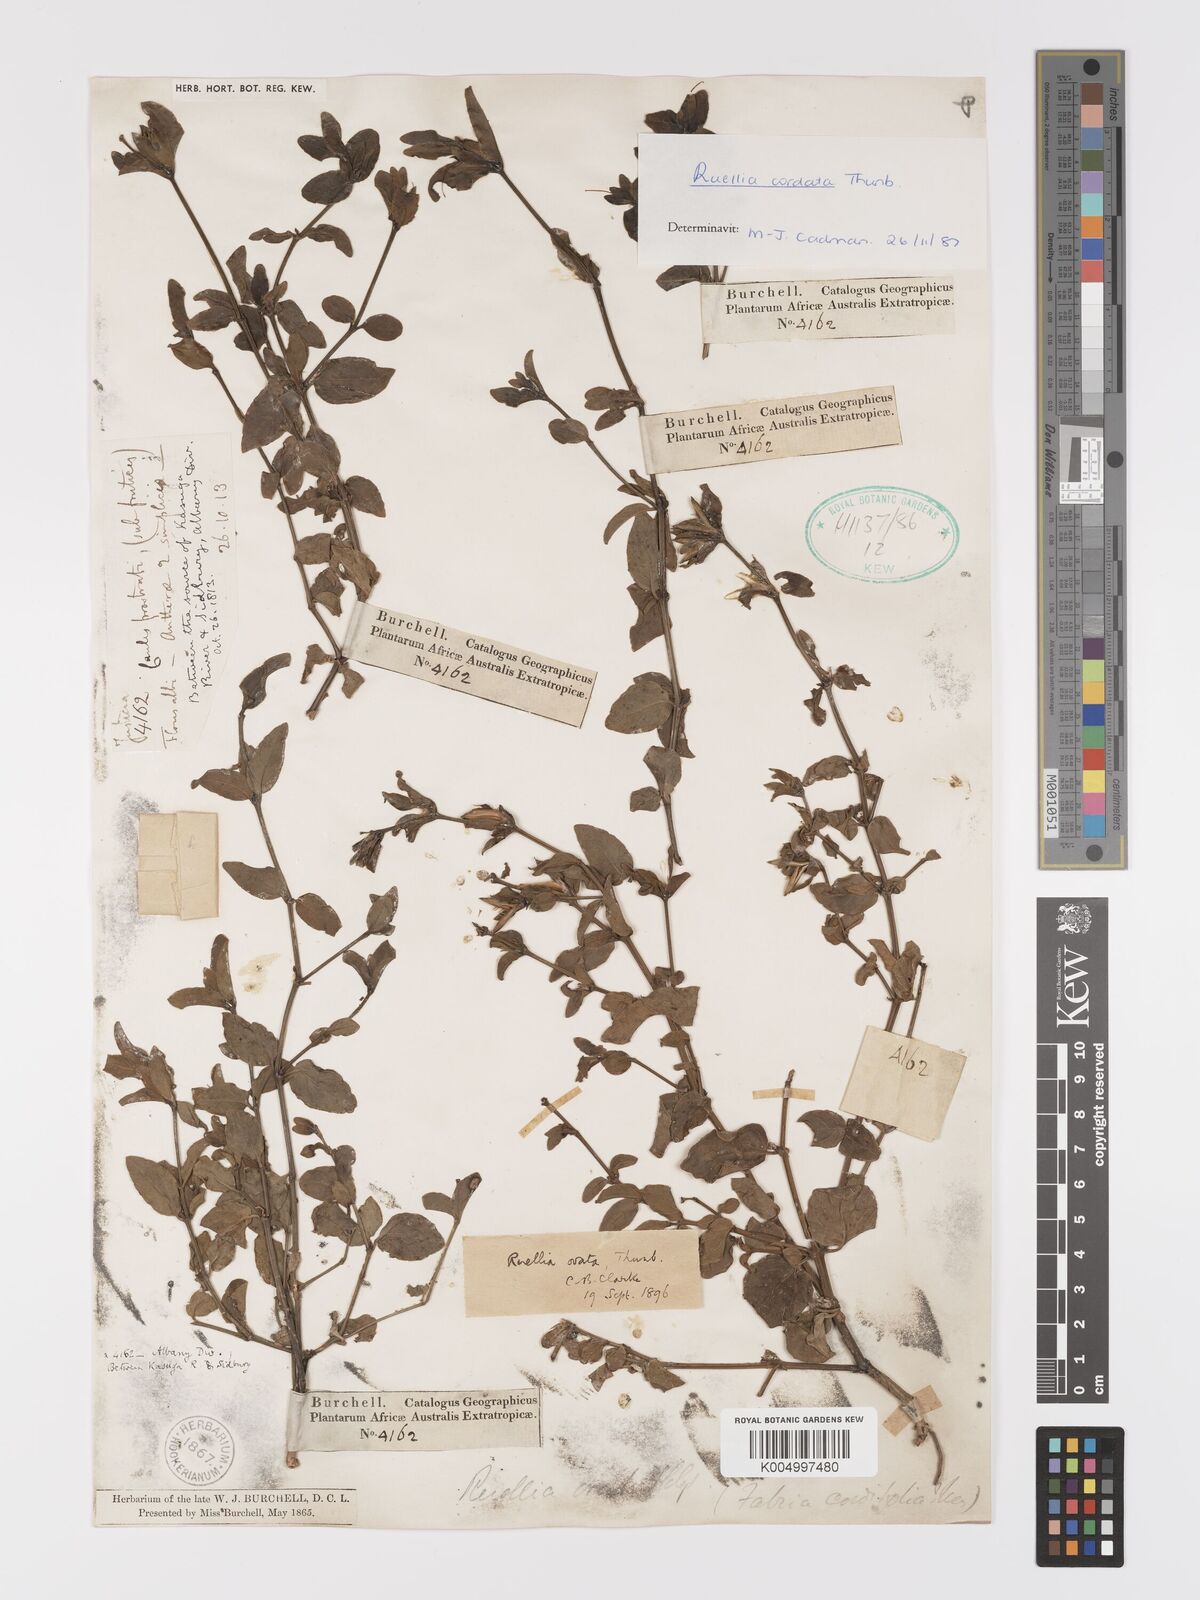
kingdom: Plantae
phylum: Tracheophyta
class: Magnoliopsida
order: Lamiales
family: Acanthaceae
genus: Ruellia
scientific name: Ruellia cordata
